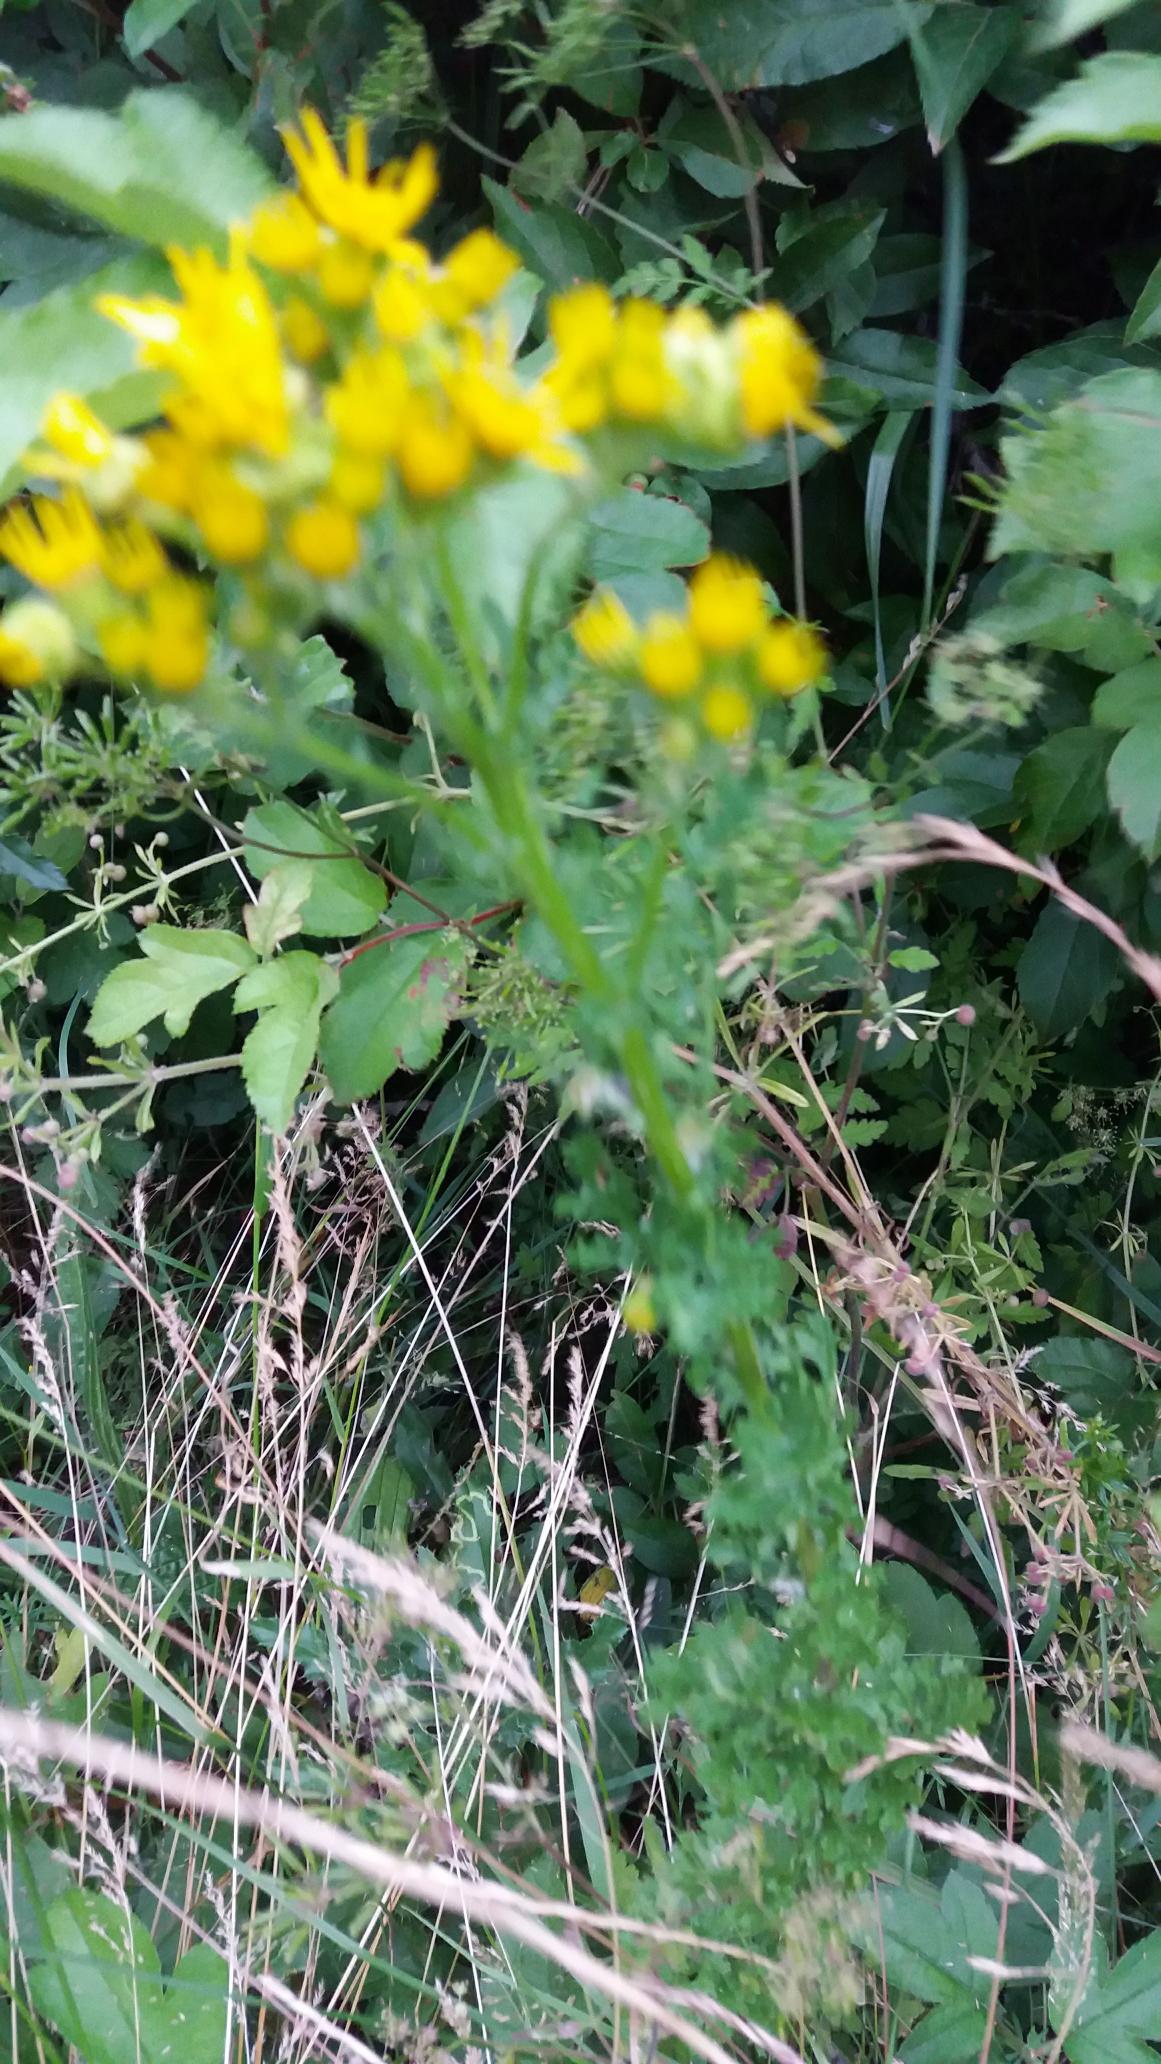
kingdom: Plantae
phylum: Tracheophyta
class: Magnoliopsida
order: Asterales
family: Asteraceae
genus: Jacobaea
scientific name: Jacobaea vulgaris
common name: Eng-brandbæger
